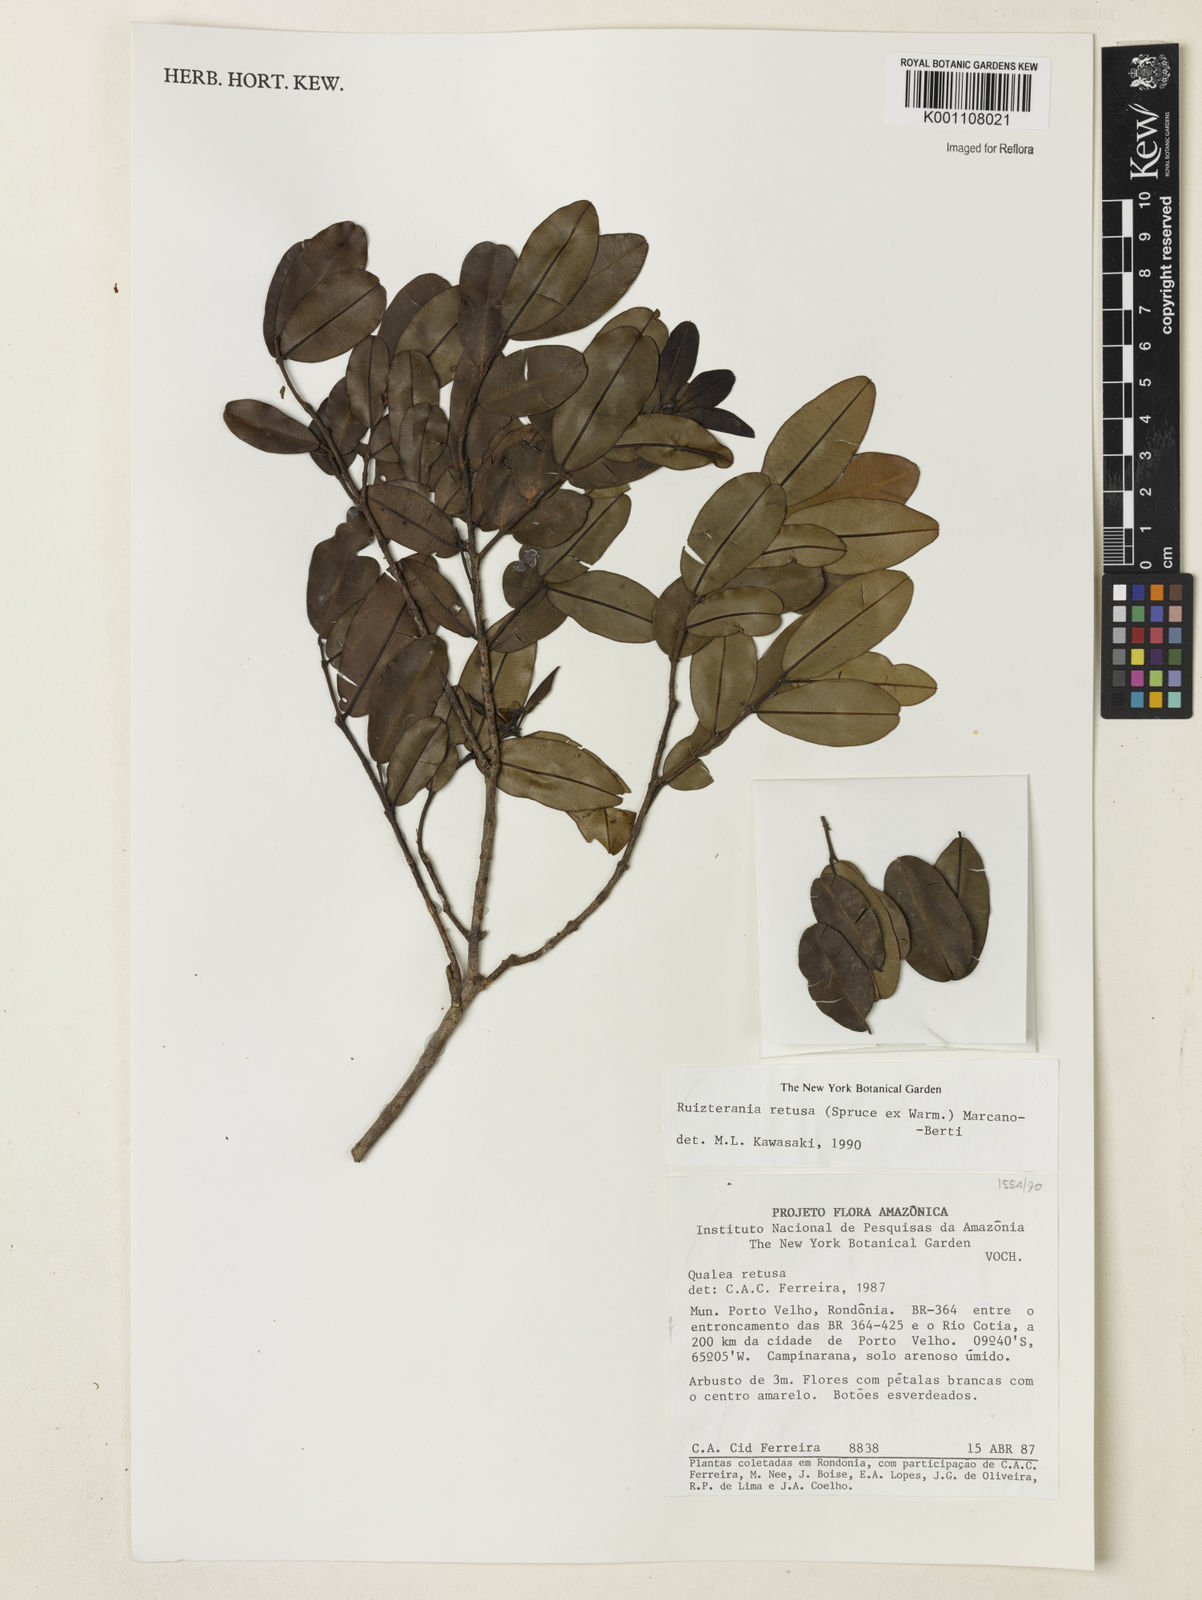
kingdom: Plantae
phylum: Tracheophyta
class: Magnoliopsida
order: Myrtales
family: Vochysiaceae
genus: Ruizterania
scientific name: Ruizterania retusa
